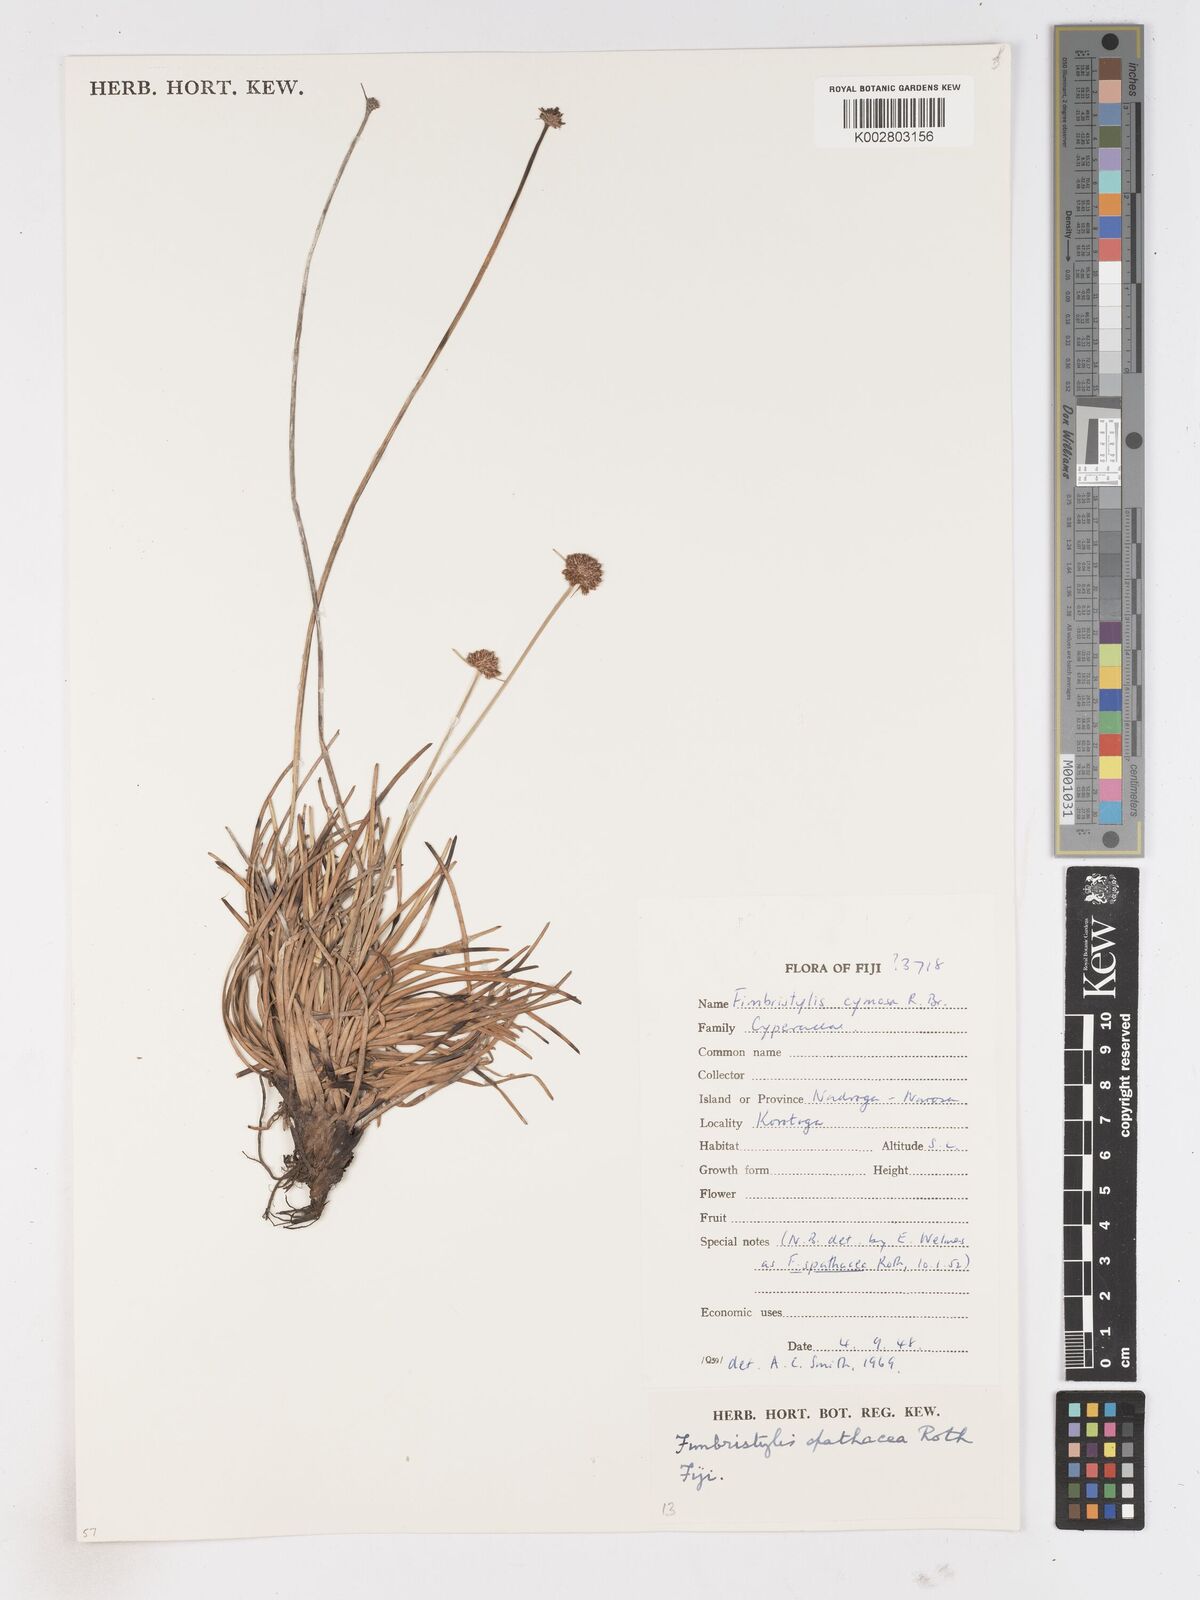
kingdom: Plantae
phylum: Tracheophyta
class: Liliopsida
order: Poales
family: Cyperaceae
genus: Fimbristylis
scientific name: Fimbristylis cymosa
